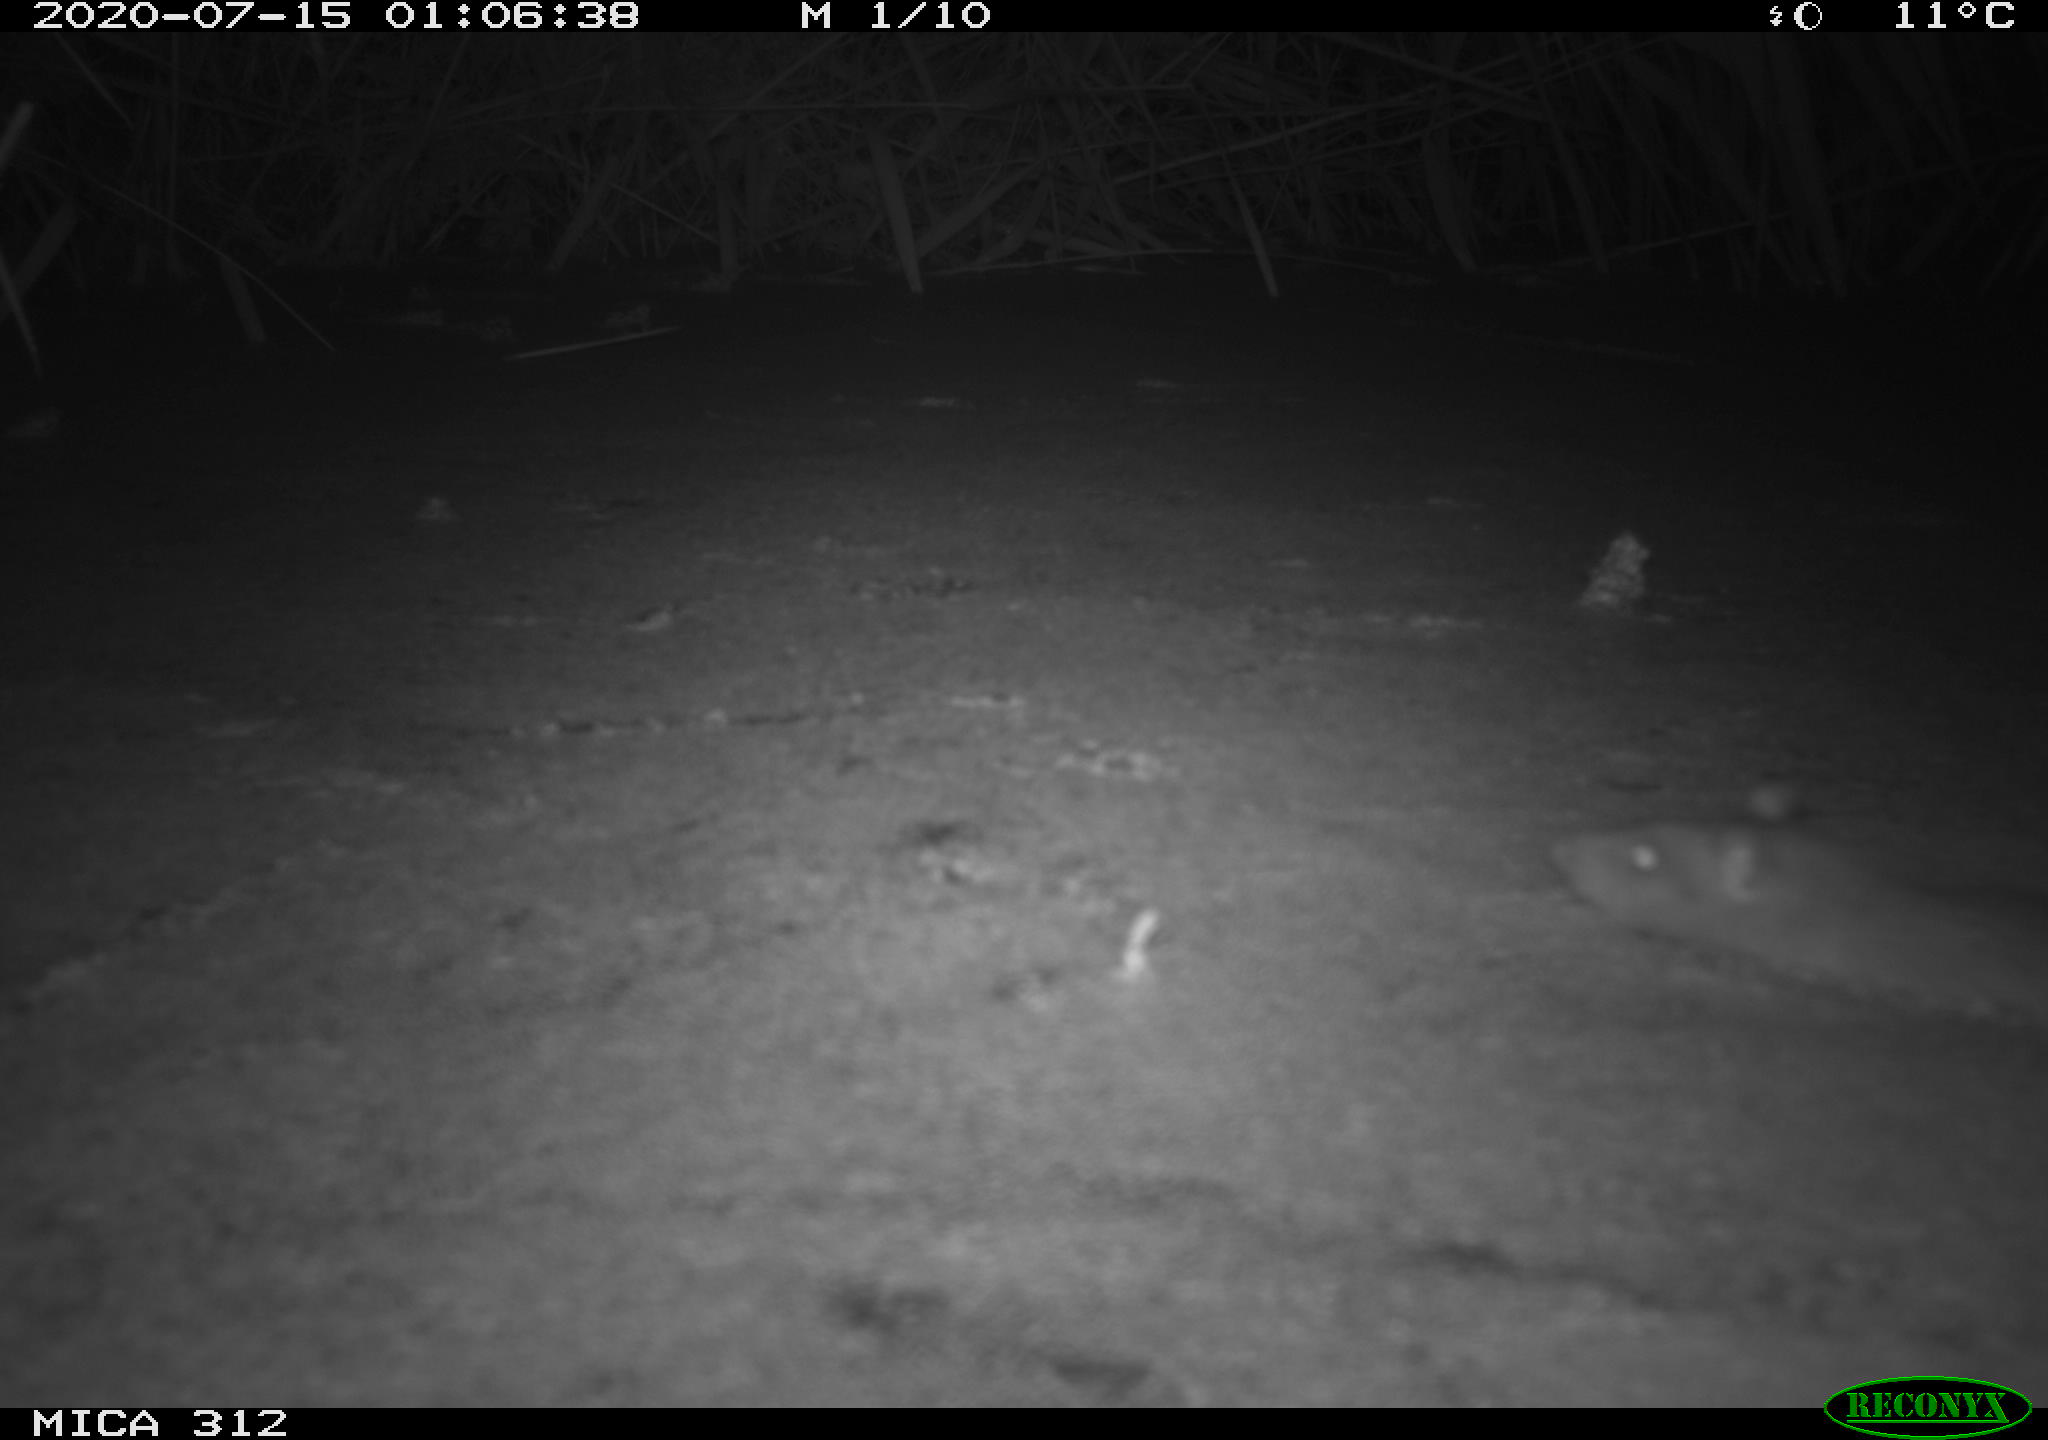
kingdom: Animalia
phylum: Chordata
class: Mammalia
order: Rodentia
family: Muridae
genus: Rattus
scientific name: Rattus norvegicus
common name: Brown rat
